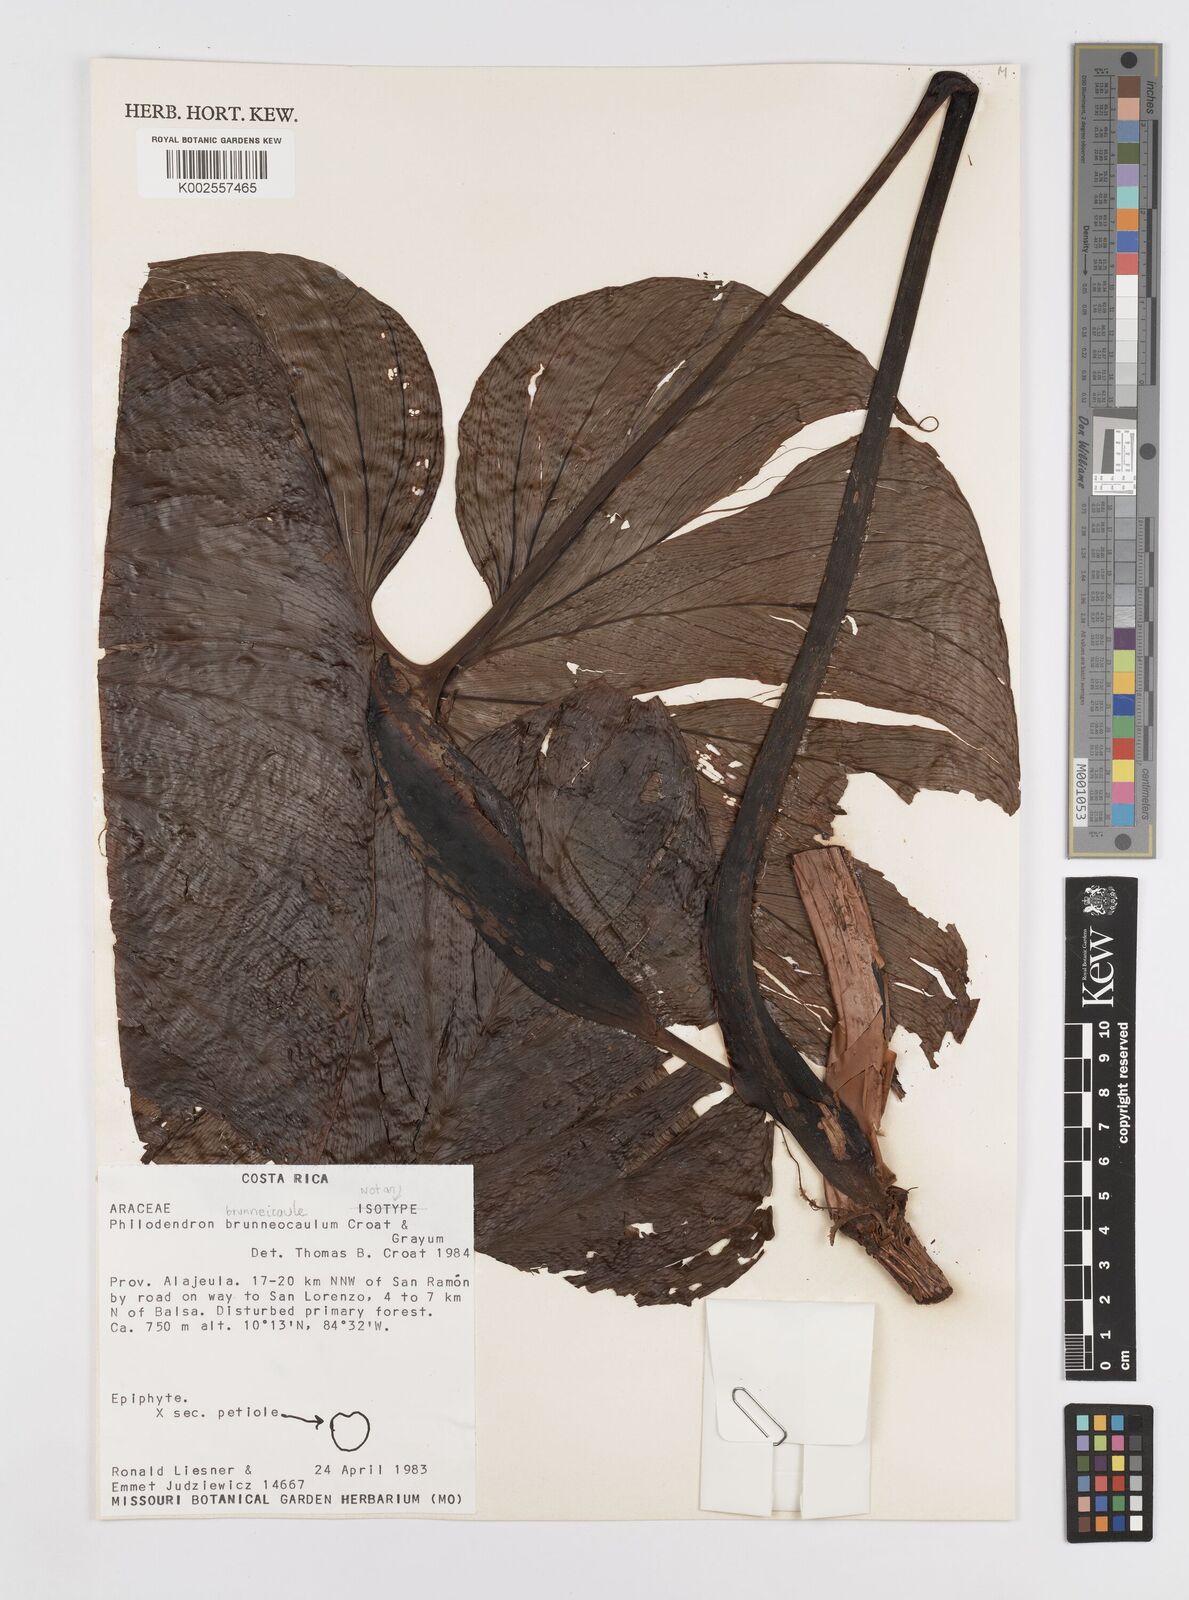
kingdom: Plantae
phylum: Tracheophyta
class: Liliopsida
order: Alismatales
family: Araceae
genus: Philodendron
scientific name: Philodendron brunneicaule
